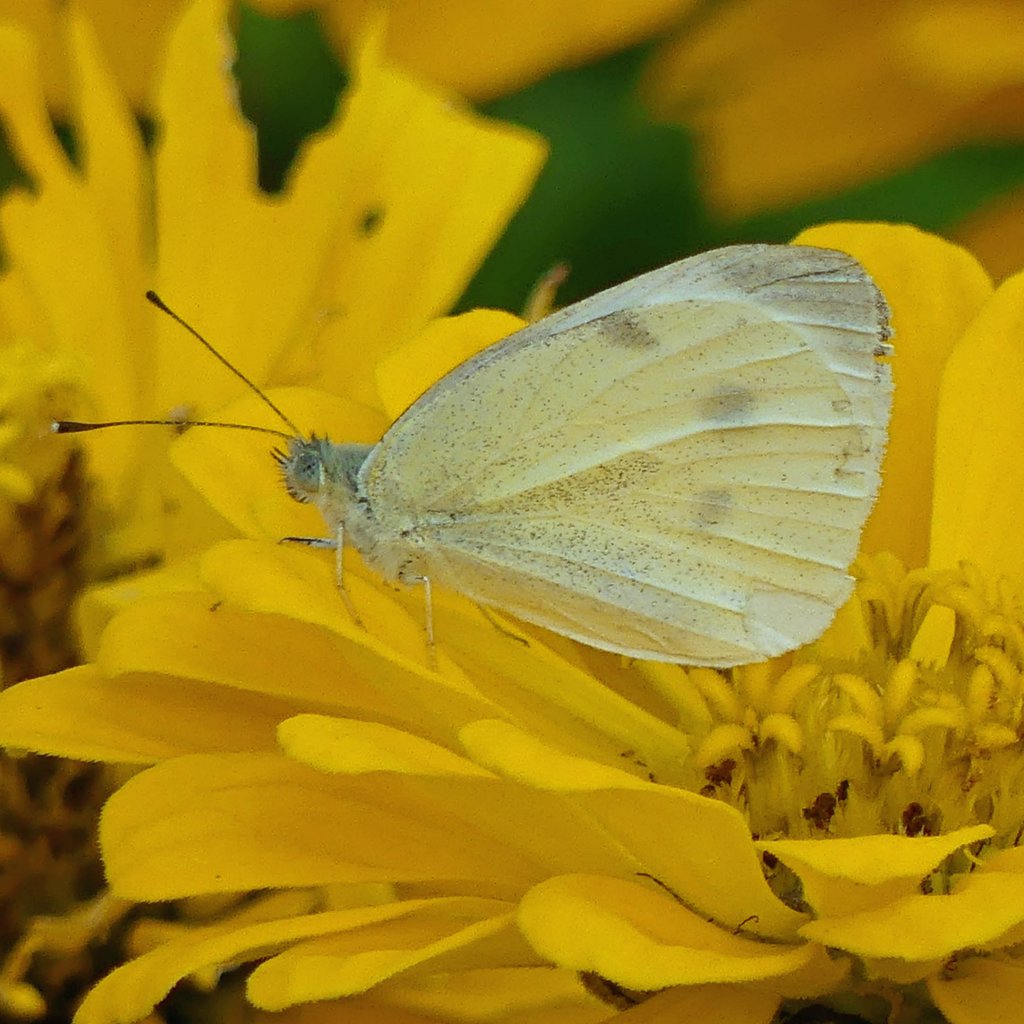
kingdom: Animalia
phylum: Arthropoda
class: Insecta
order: Lepidoptera
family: Pieridae
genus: Pieris
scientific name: Pieris rapae
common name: Cabbage White
